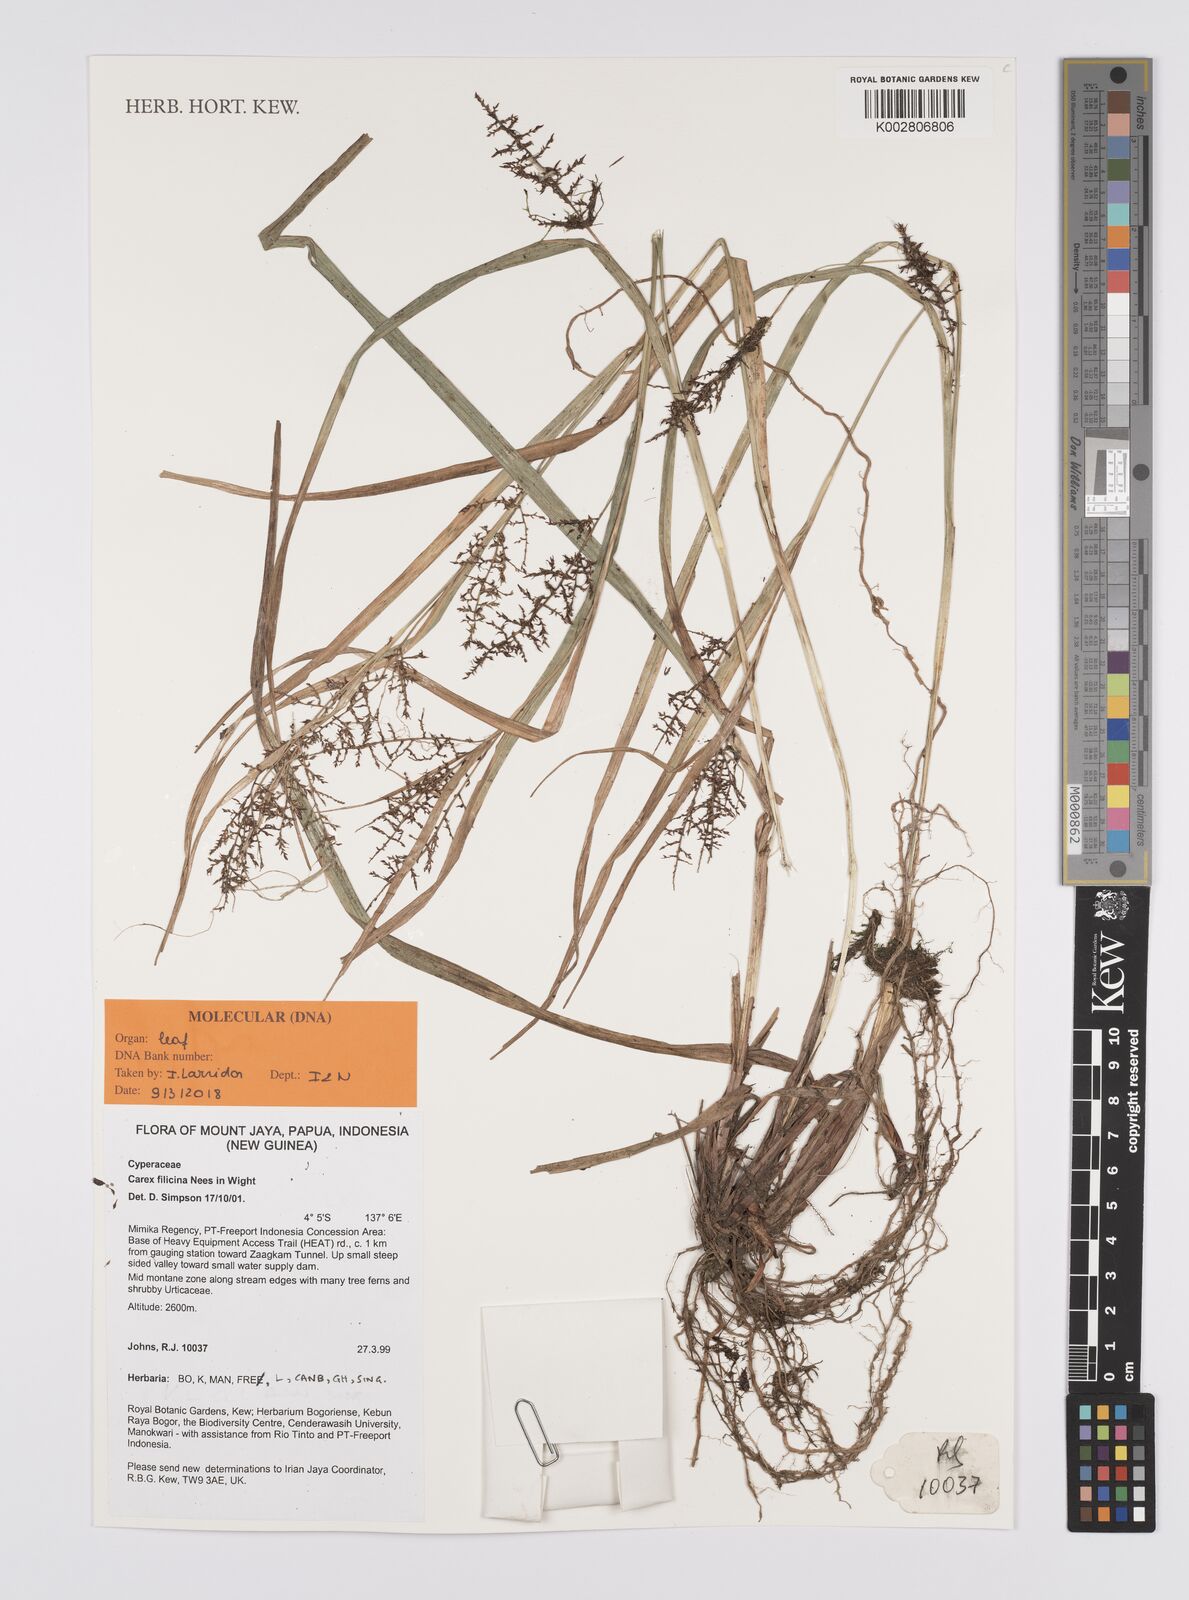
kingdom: Plantae
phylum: Tracheophyta
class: Liliopsida
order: Poales
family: Cyperaceae
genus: Carex
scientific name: Carex filicina
